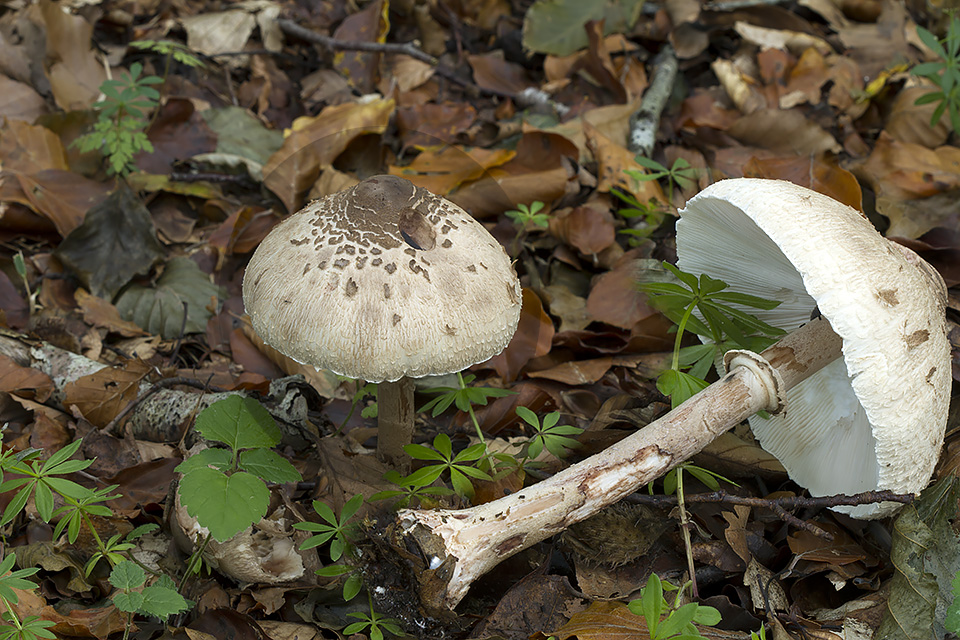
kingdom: Fungi
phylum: Basidiomycota
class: Agaricomycetes
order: Agaricales
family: Agaricaceae
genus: Macrolepiota
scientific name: Macrolepiota fuliginosa
